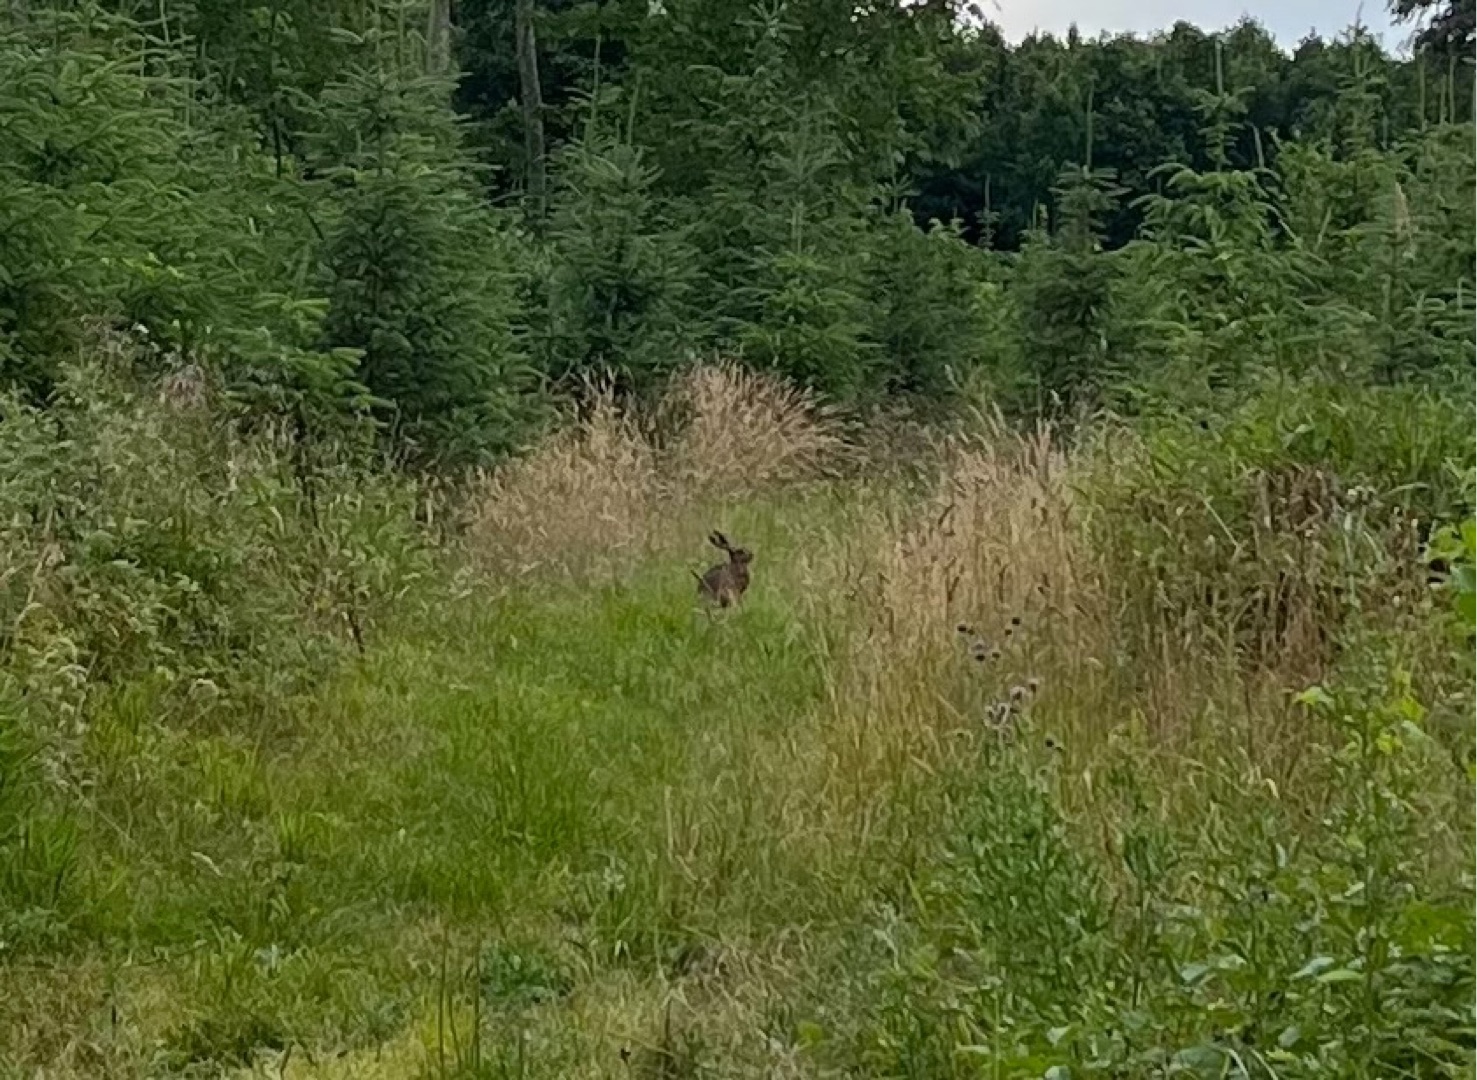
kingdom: Animalia
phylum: Chordata
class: Mammalia
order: Lagomorpha
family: Leporidae
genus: Lepus
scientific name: Lepus europaeus
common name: Hare
